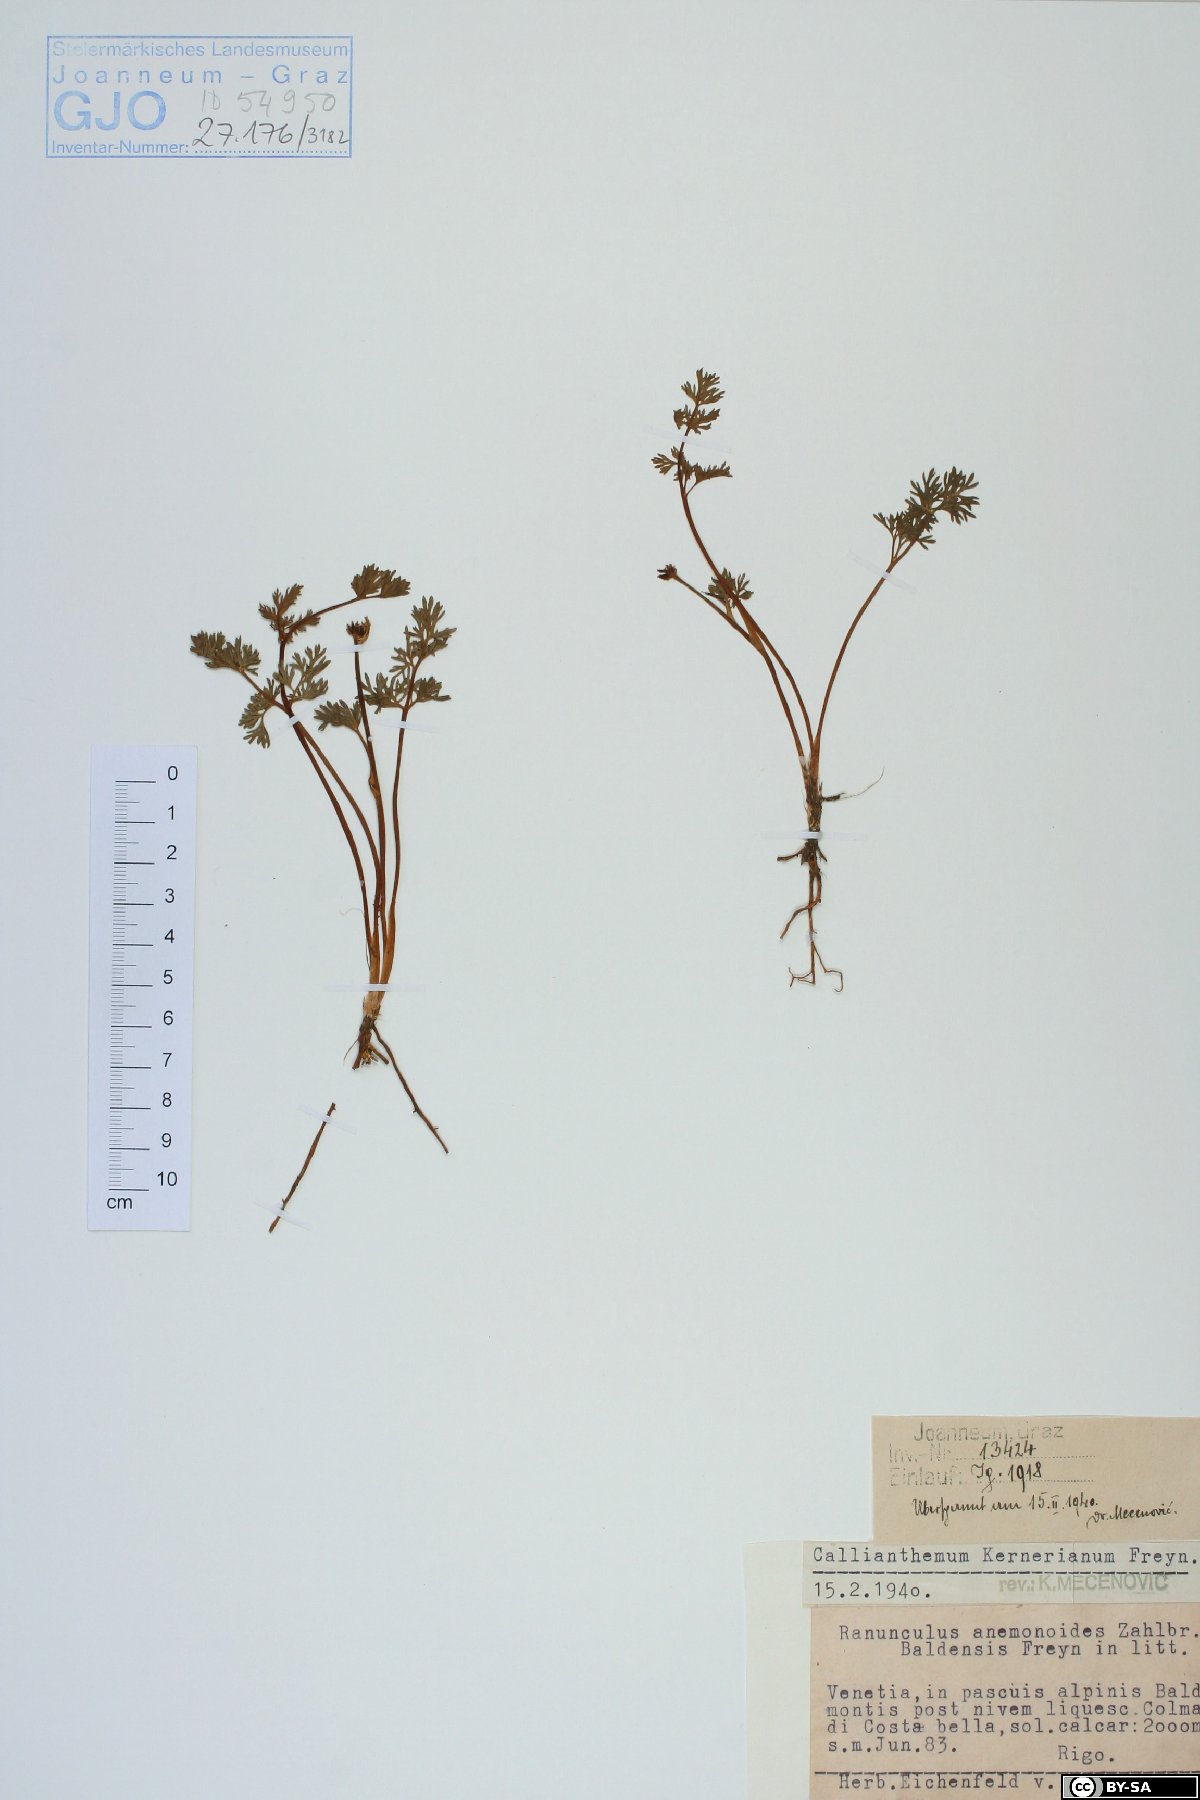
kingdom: Plantae
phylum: Tracheophyta
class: Magnoliopsida
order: Ranunculales
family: Ranunculaceae
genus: Callianthemum
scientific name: Callianthemum kernerianum
